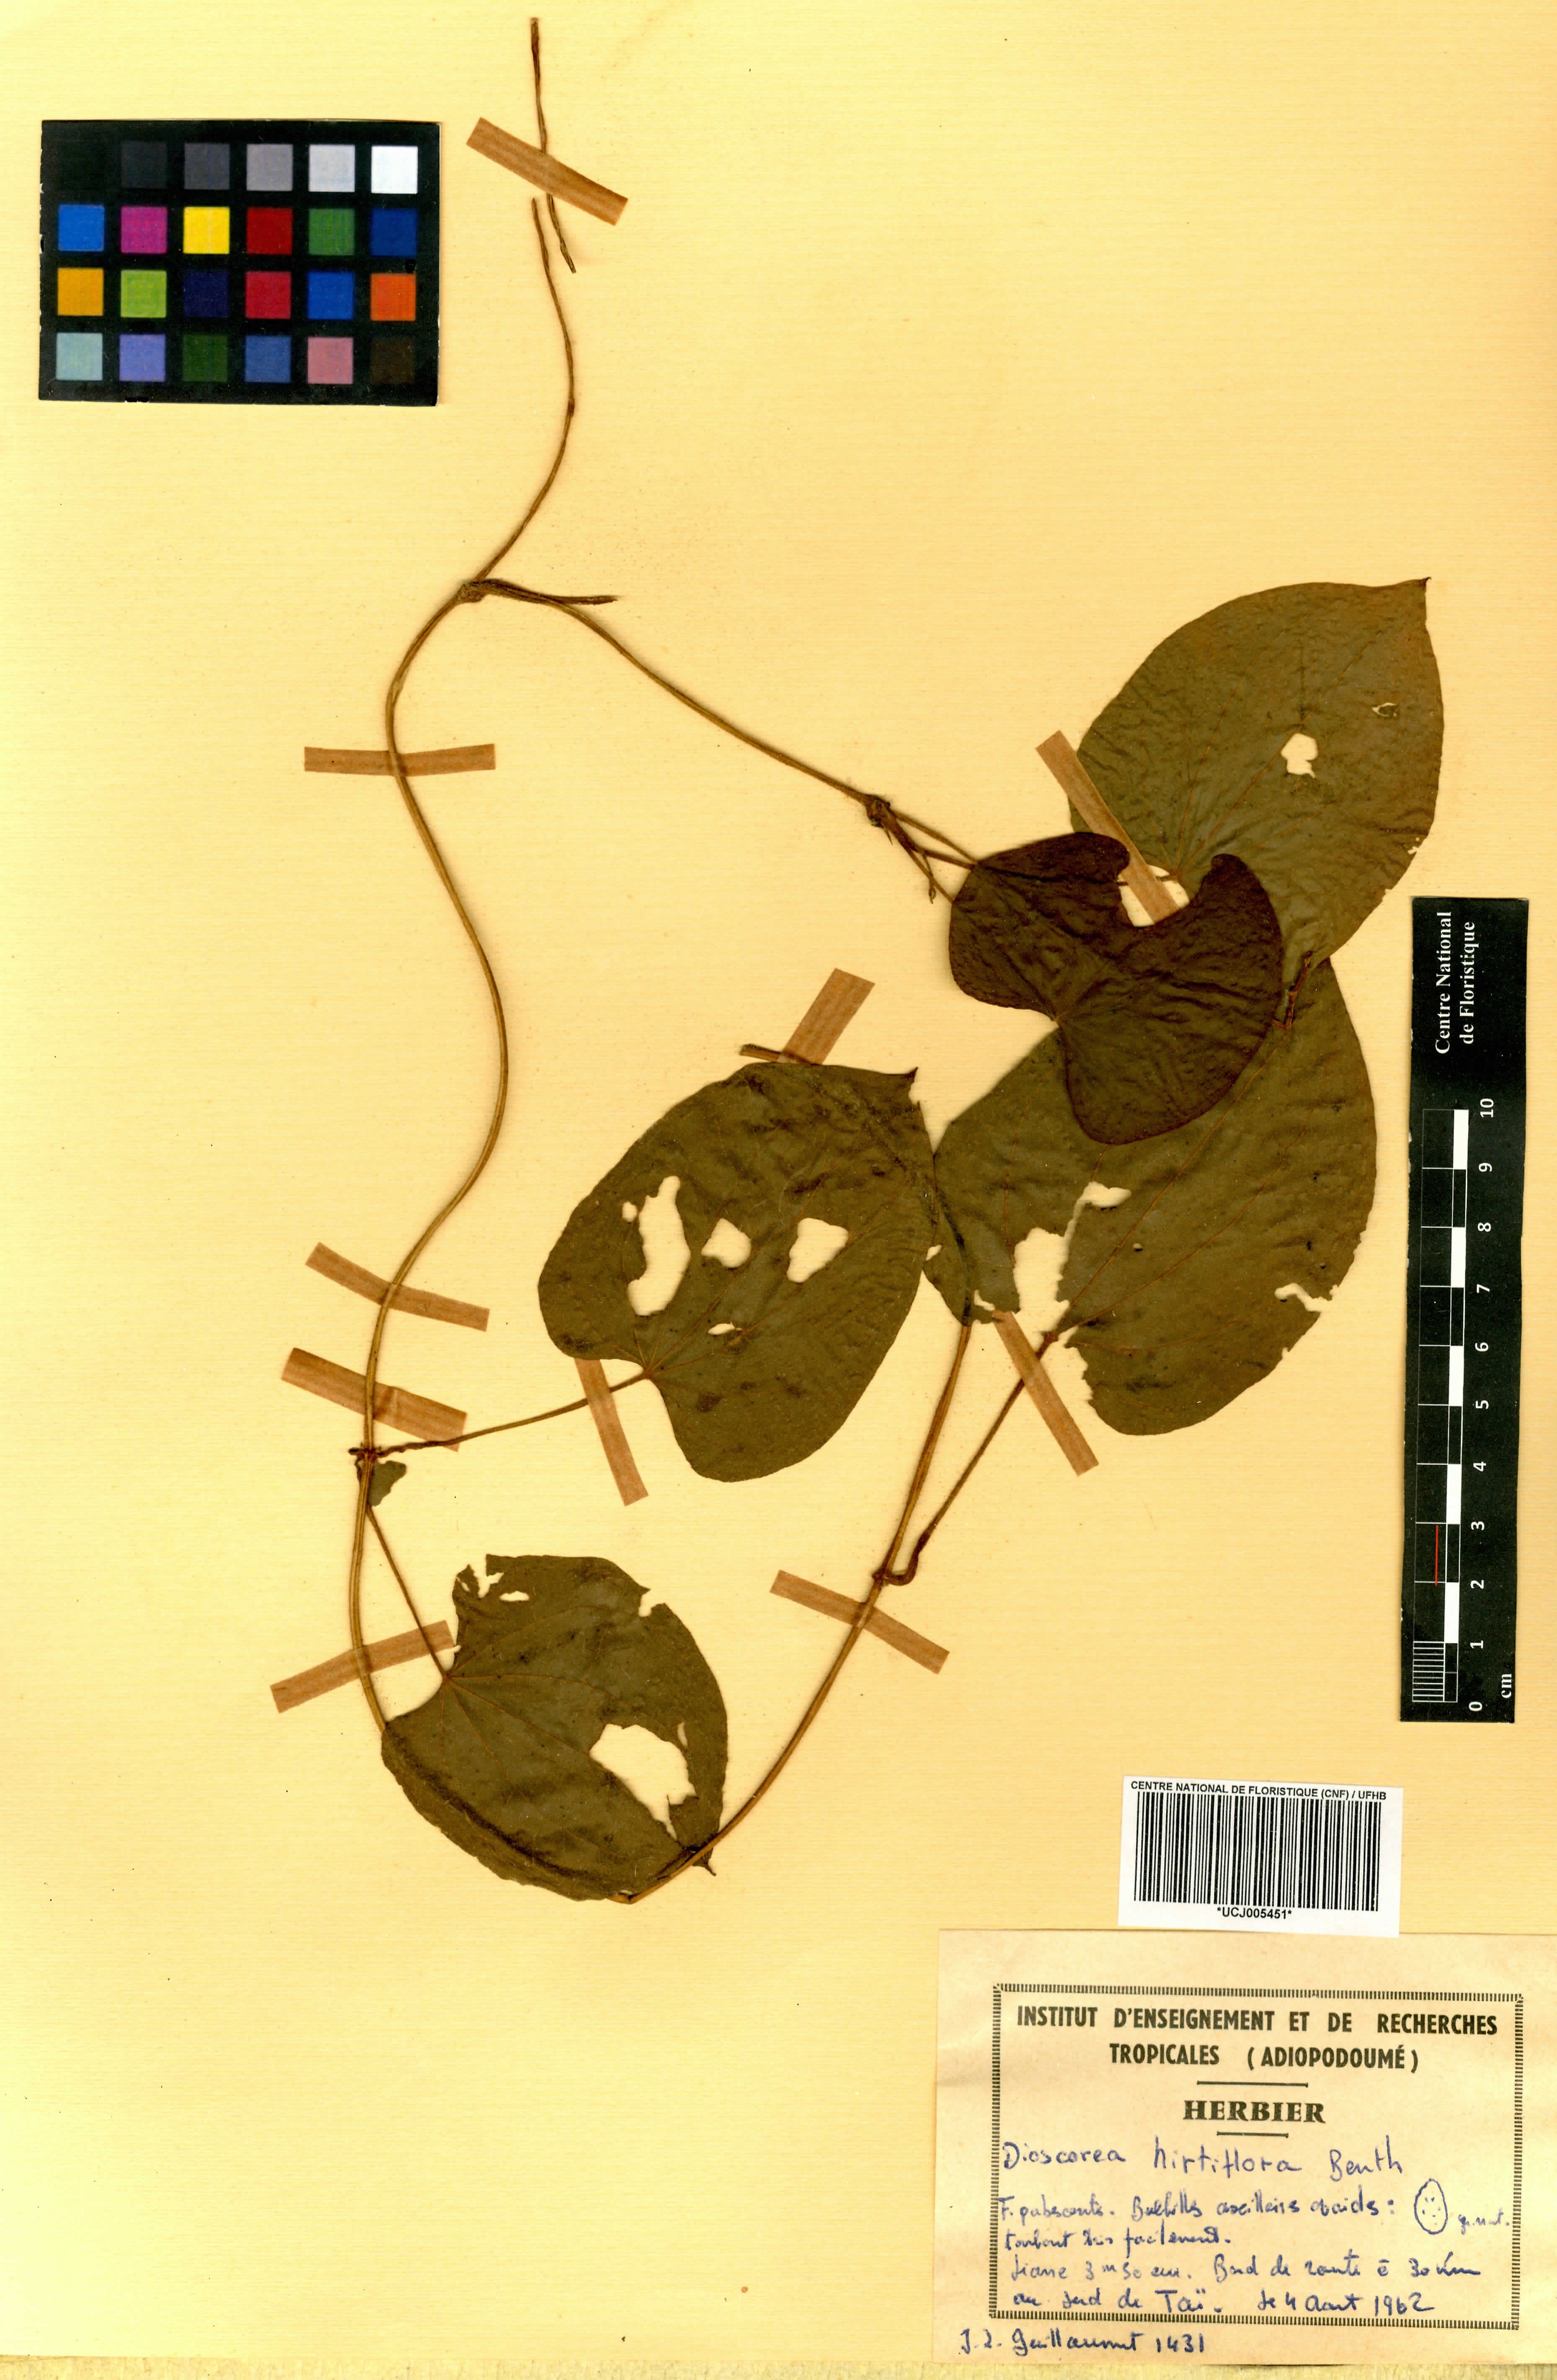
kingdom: Plantae
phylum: Tracheophyta
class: Liliopsida
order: Dioscoreales
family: Dioscoreaceae
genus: Dioscorea
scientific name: Dioscorea hirtiflora
